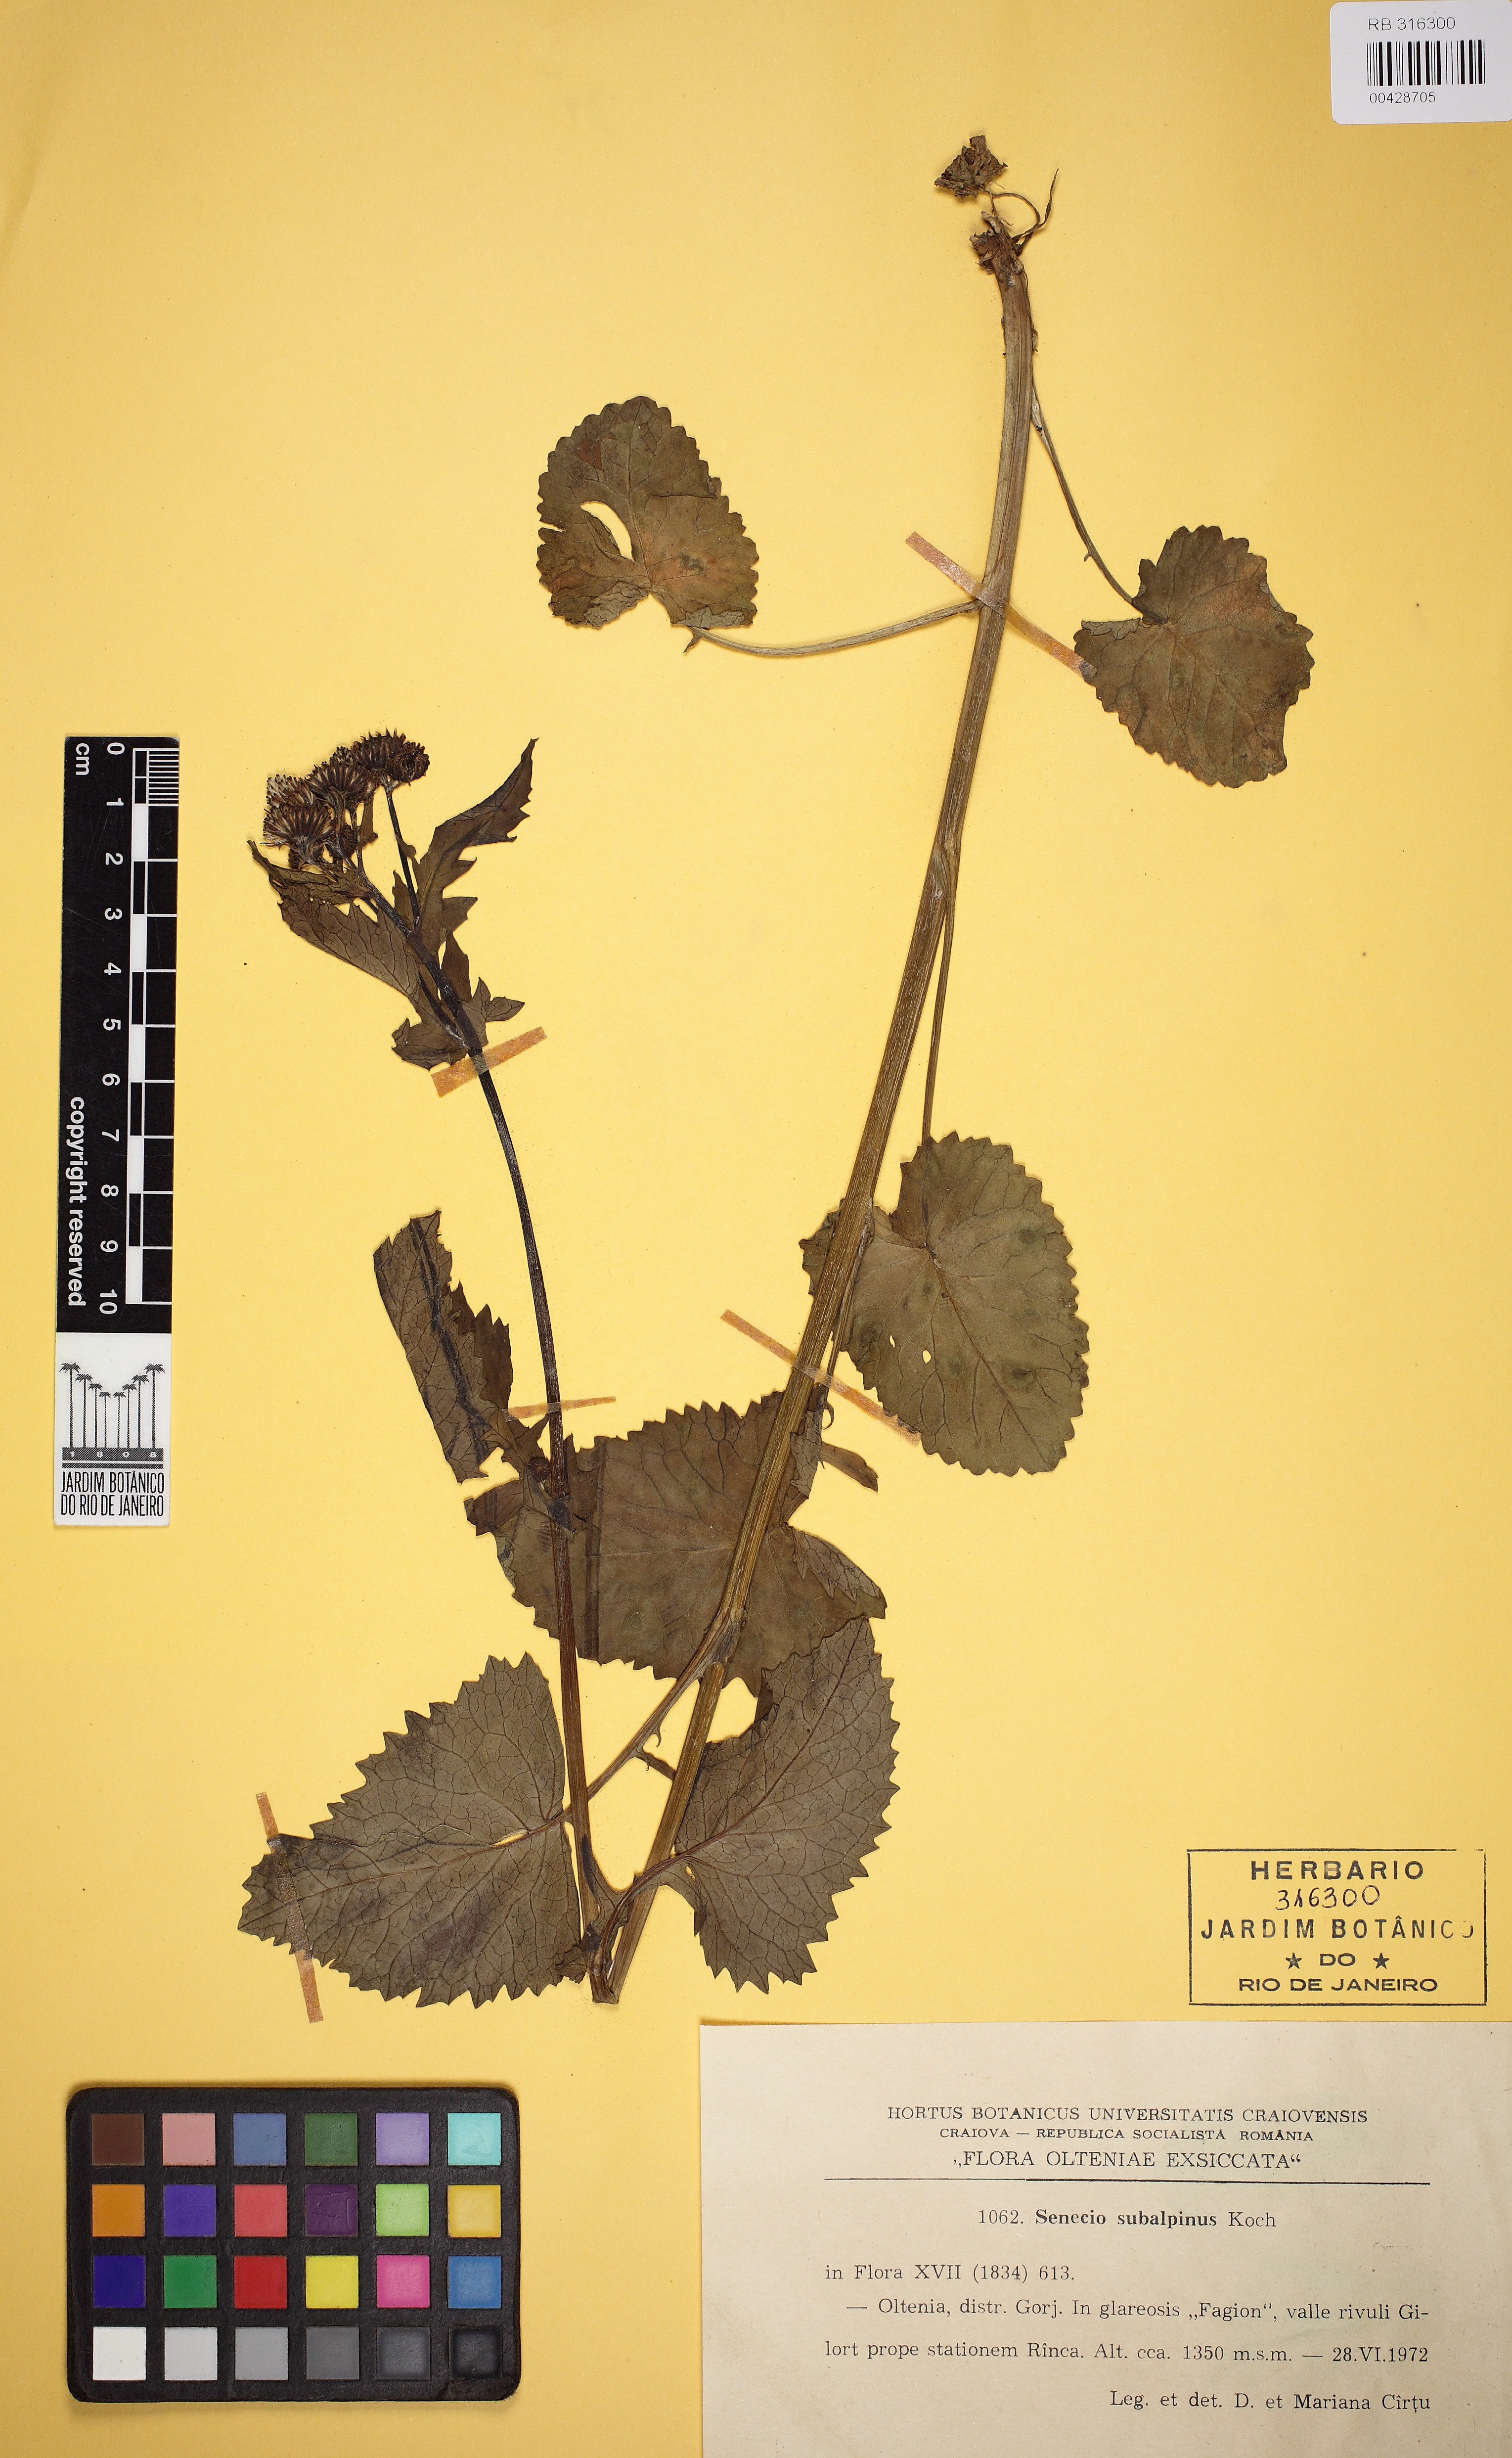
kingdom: Plantae
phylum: Tracheophyta
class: Magnoliopsida
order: Asterales
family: Asteraceae
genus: Jacobaea
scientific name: Jacobaea subalpina
